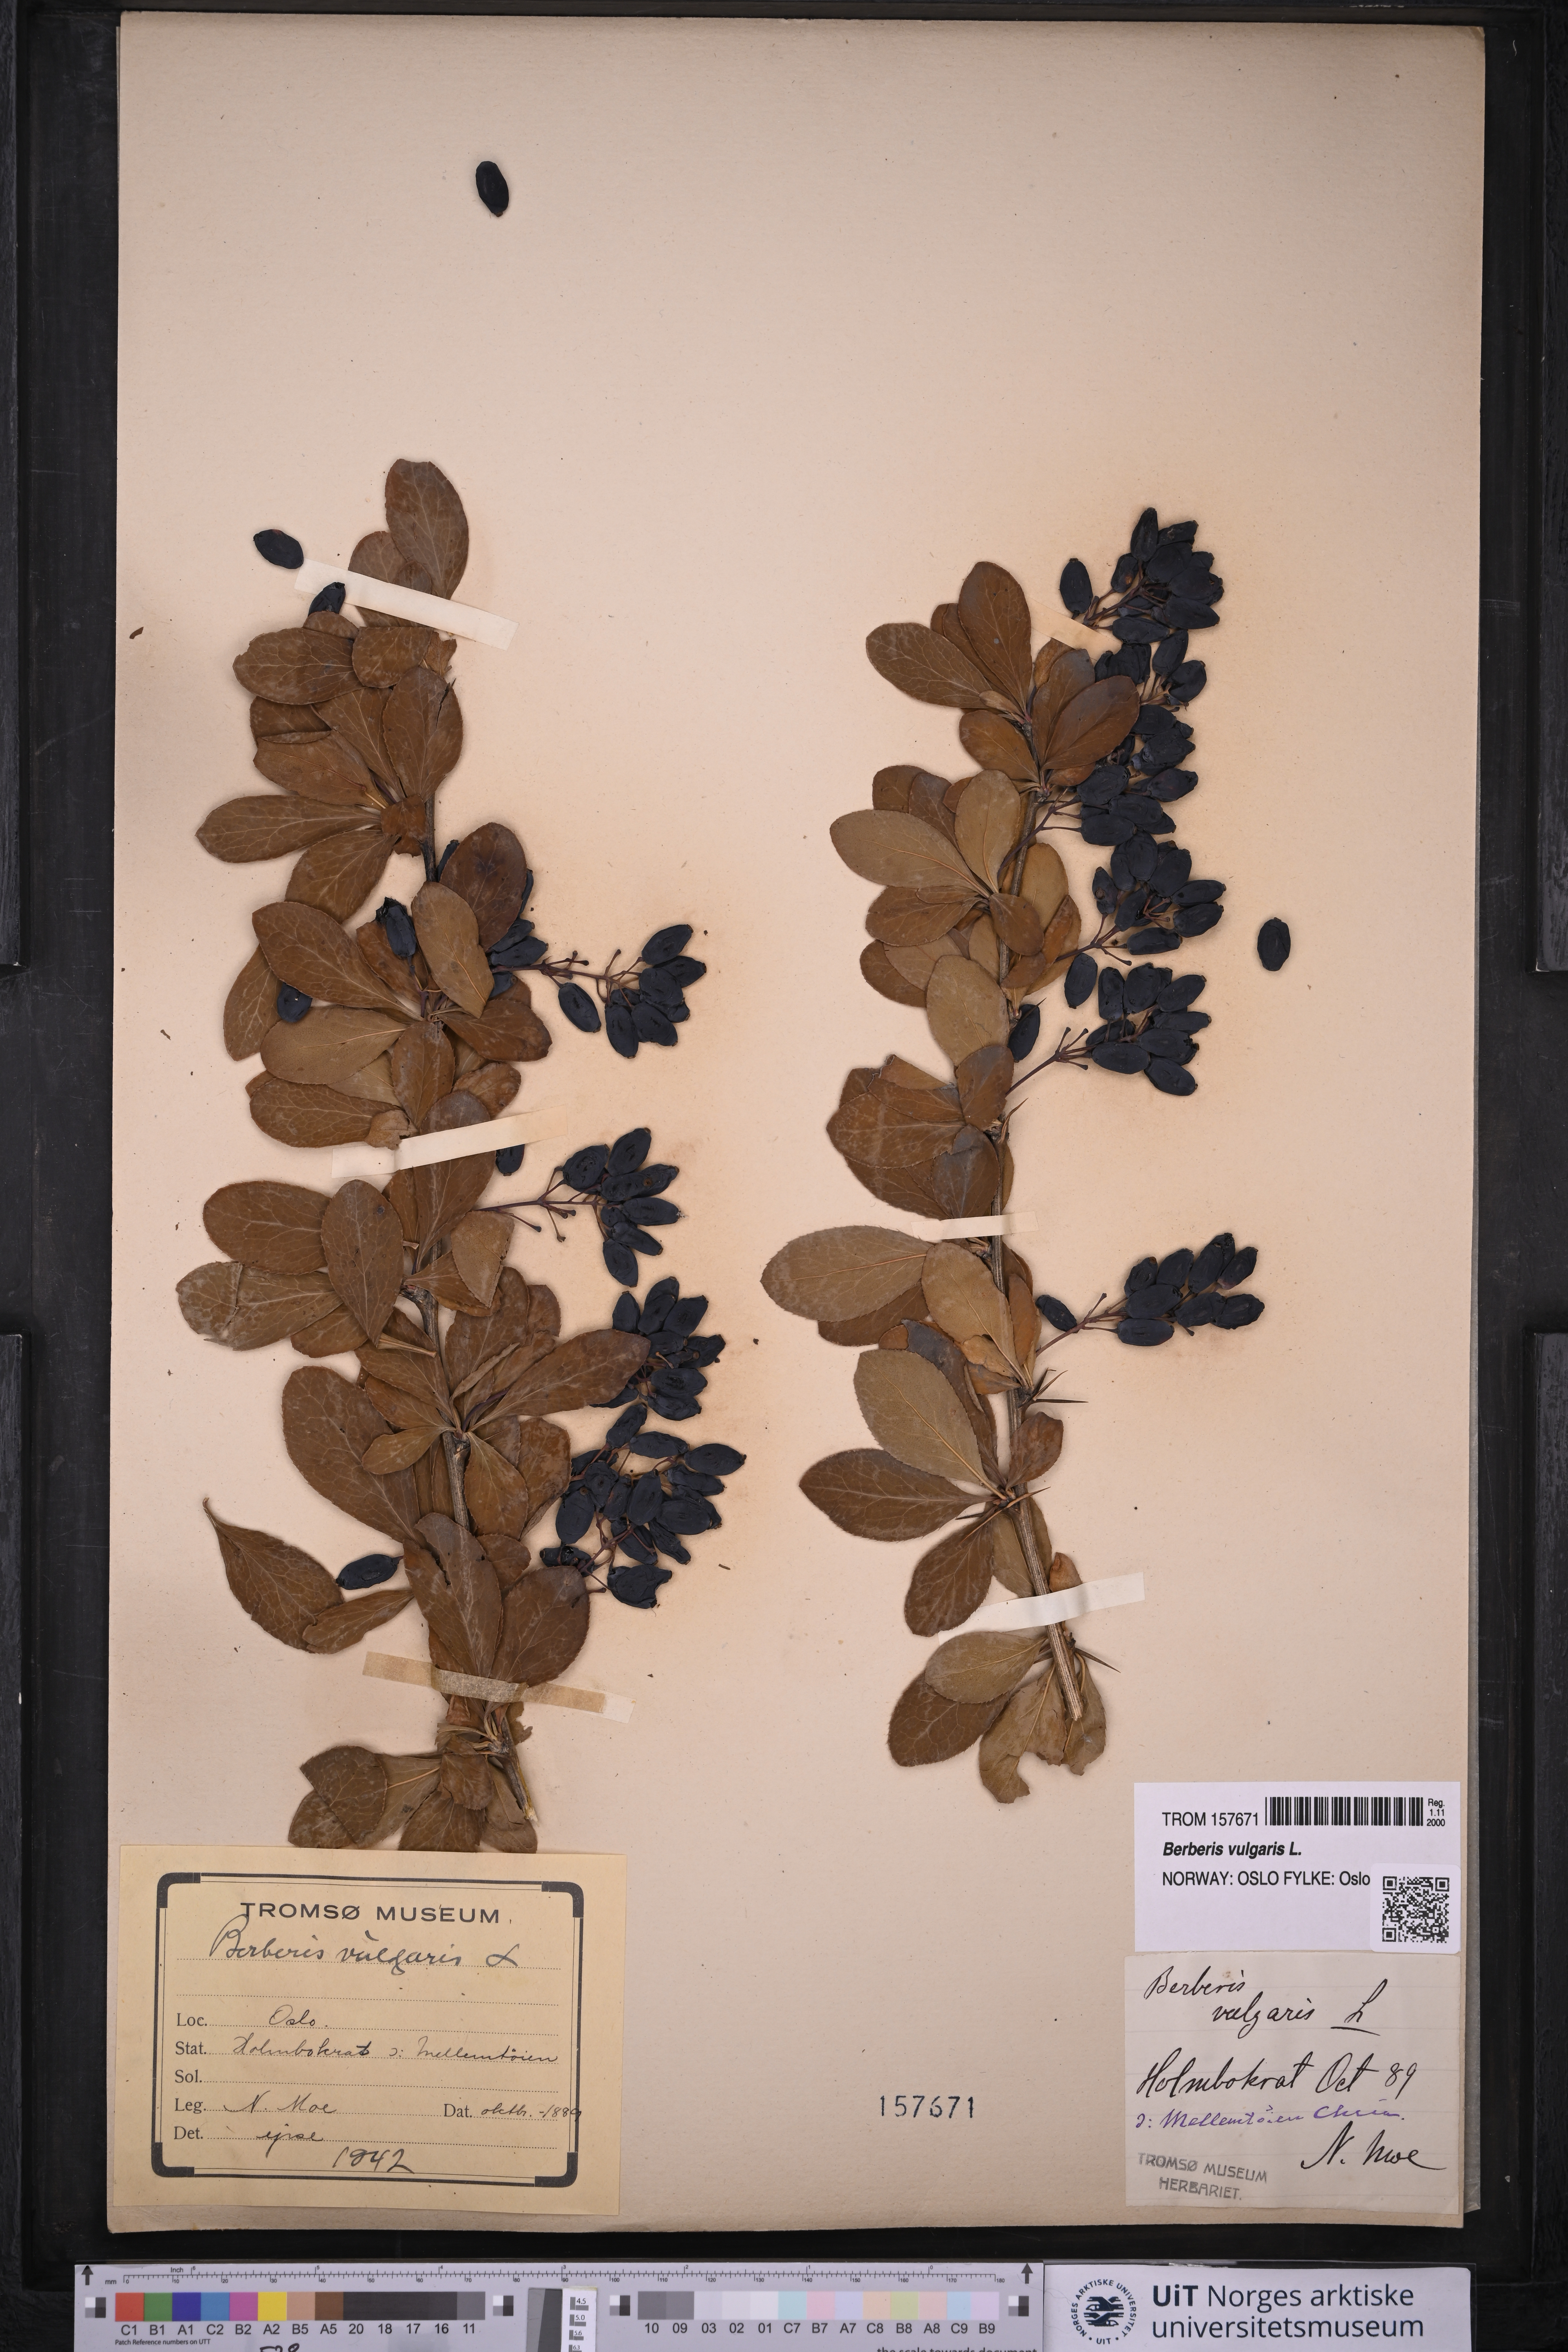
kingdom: Plantae
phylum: Tracheophyta
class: Magnoliopsida
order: Ranunculales
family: Berberidaceae
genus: Berberis
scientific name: Berberis vulgaris
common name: Barberry
